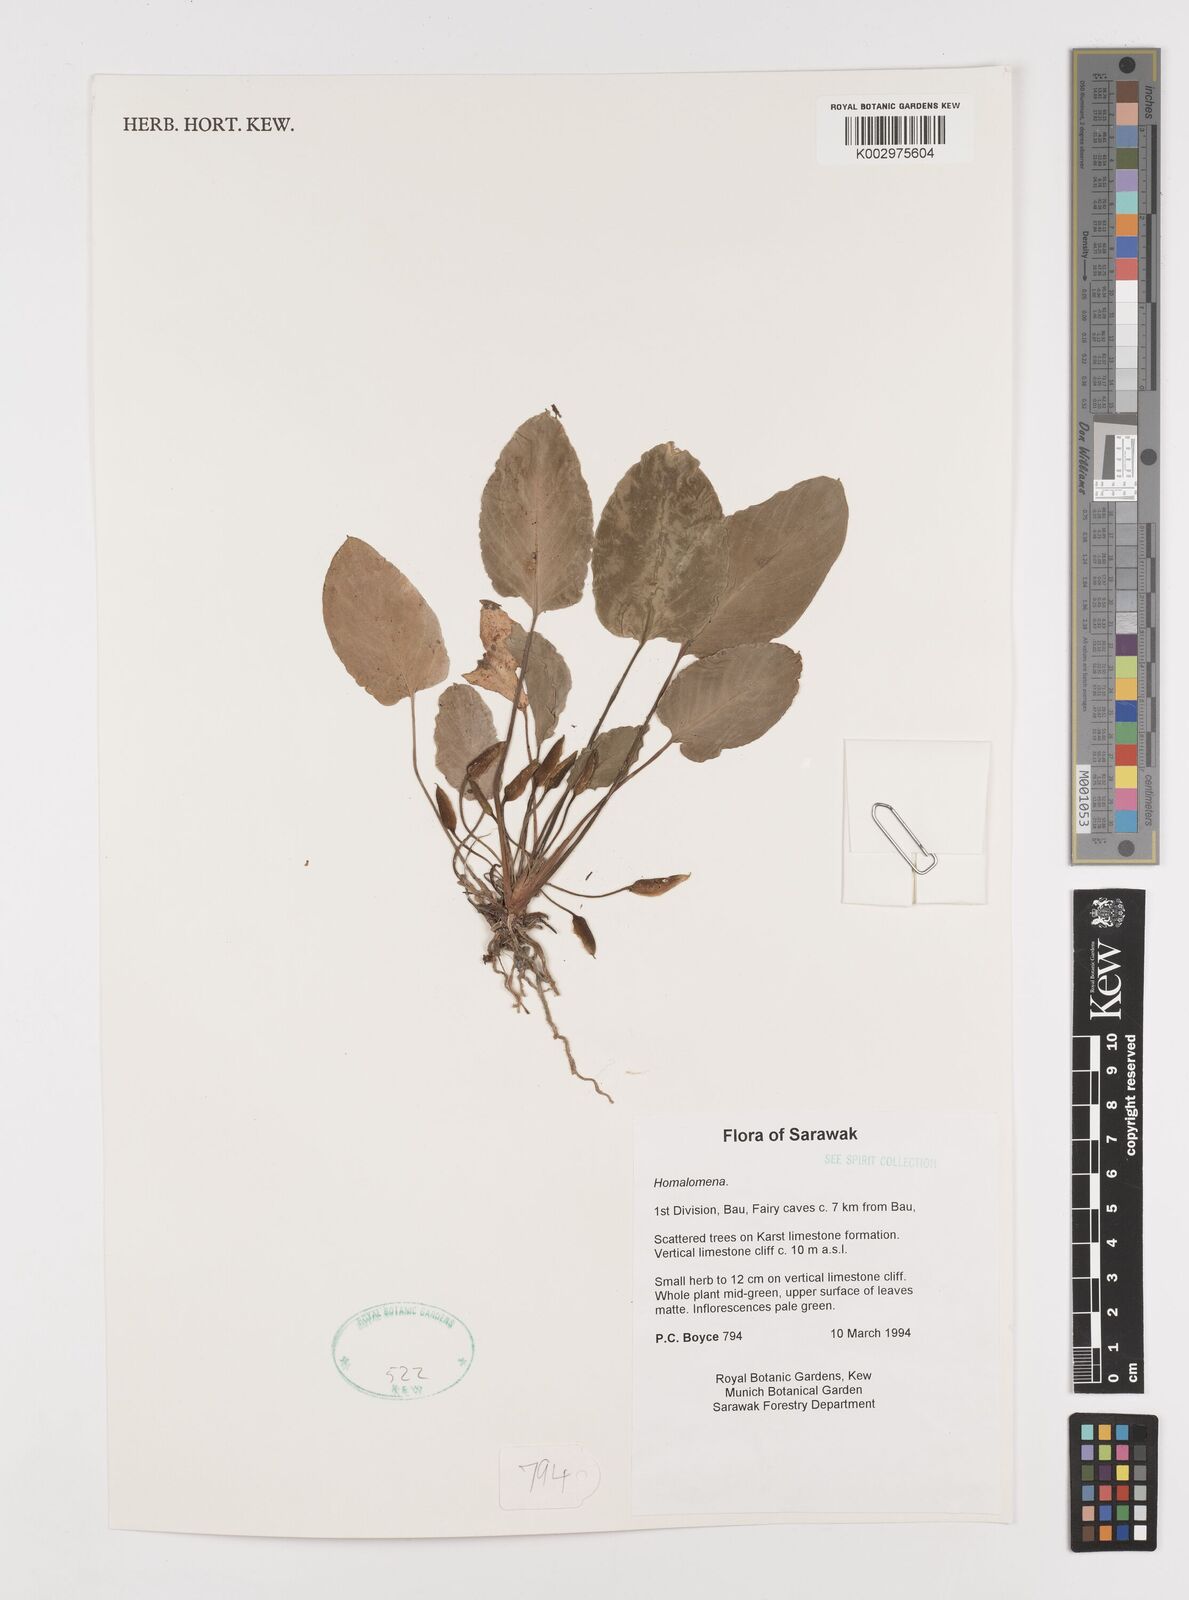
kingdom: Plantae
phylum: Tracheophyta
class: Liliopsida
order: Alismatales
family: Araceae
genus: Homalomena
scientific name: Homalomena
